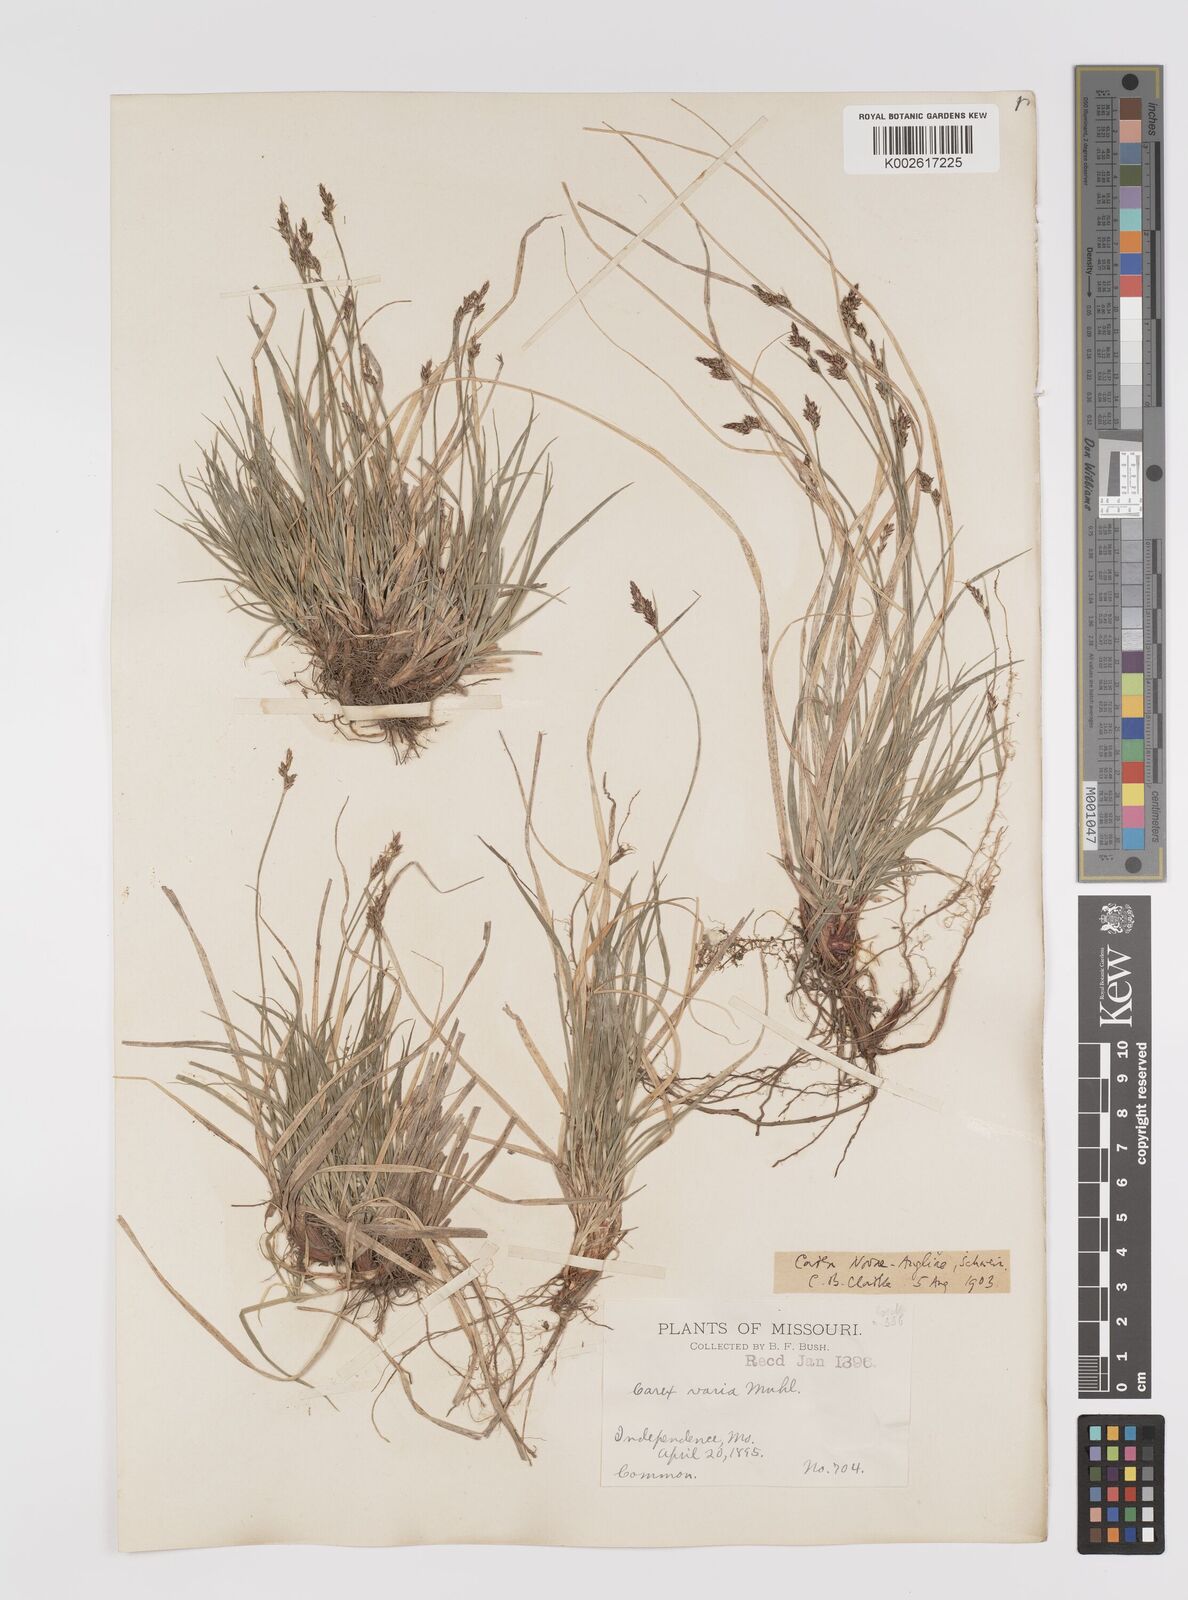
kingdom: Plantae
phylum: Tracheophyta
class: Liliopsida
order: Poales
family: Cyperaceae
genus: Carex
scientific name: Carex albicans
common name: Bellow-beaked sedge
